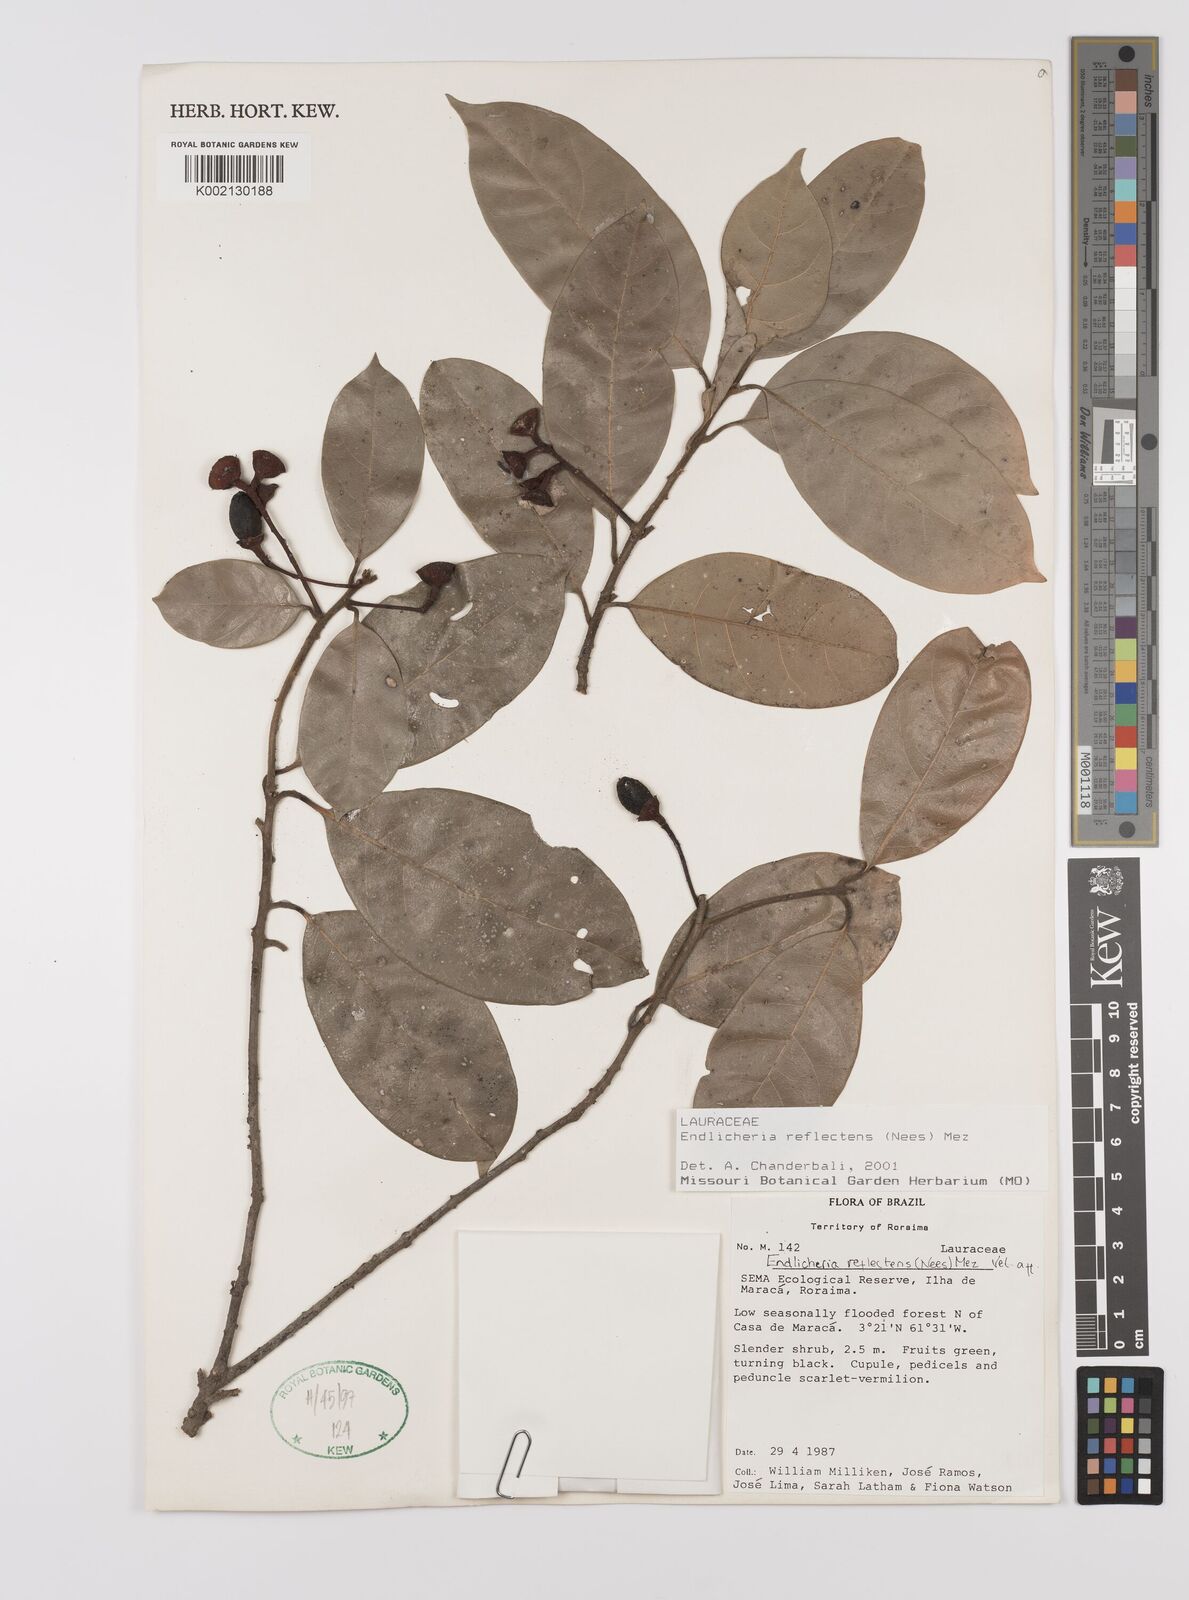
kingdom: Plantae
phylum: Tracheophyta
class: Magnoliopsida
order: Laurales
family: Lauraceae
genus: Endlicheria
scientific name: Endlicheria reflectens
